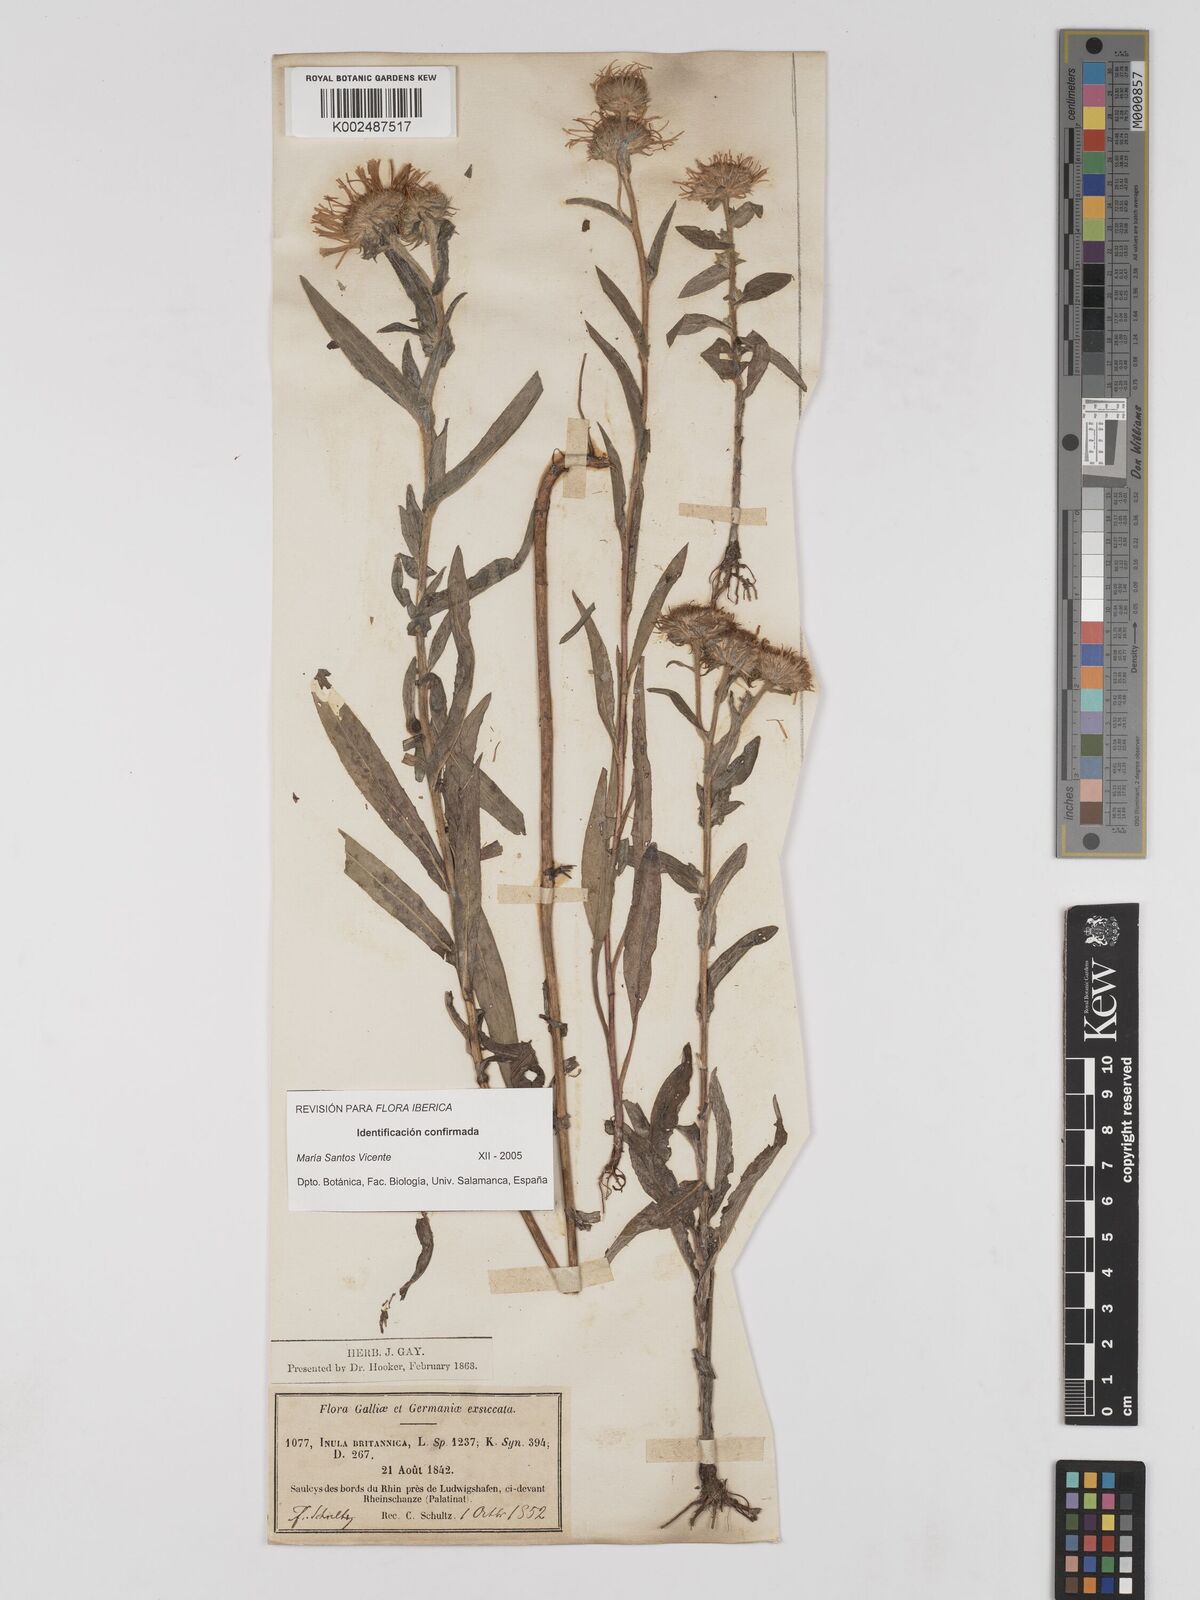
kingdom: Plantae
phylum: Tracheophyta
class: Magnoliopsida
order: Asterales
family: Asteraceae
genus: Pentanema
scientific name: Pentanema britannicum
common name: British elecampane
